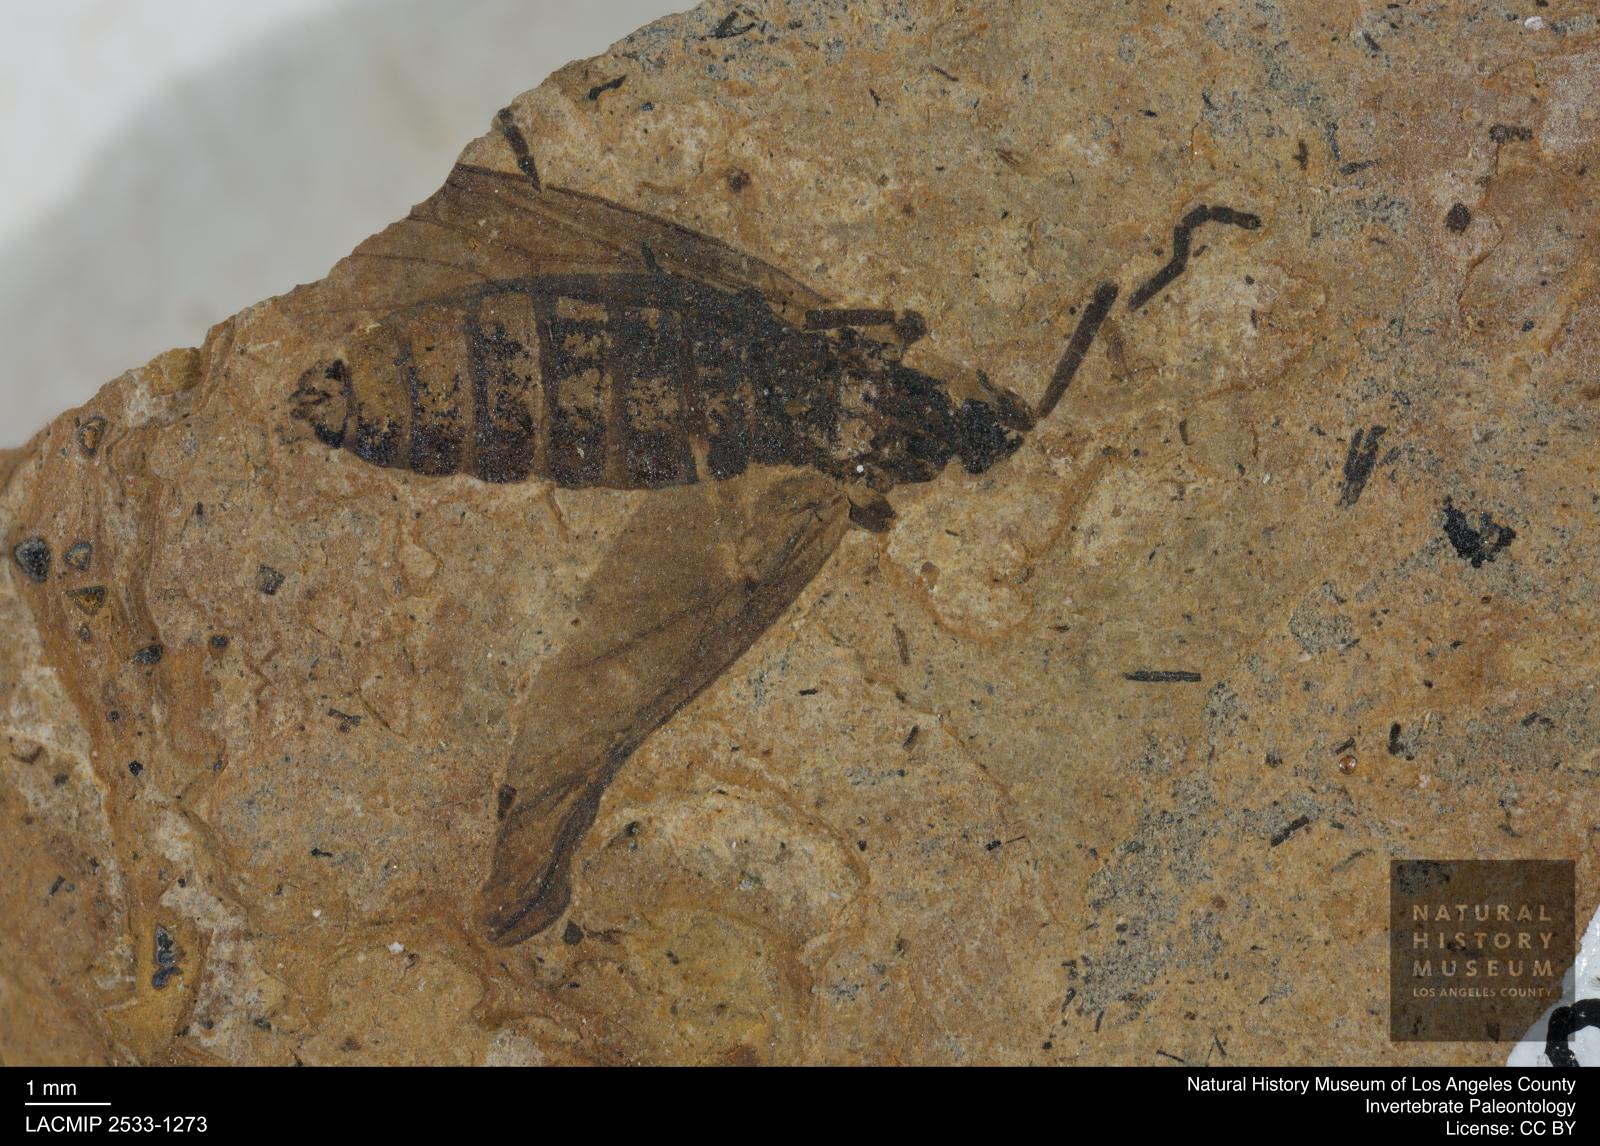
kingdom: Animalia
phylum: Arthropoda
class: Insecta
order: Diptera
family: Bibionidae
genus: Plecia
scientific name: Plecia hypogaea
